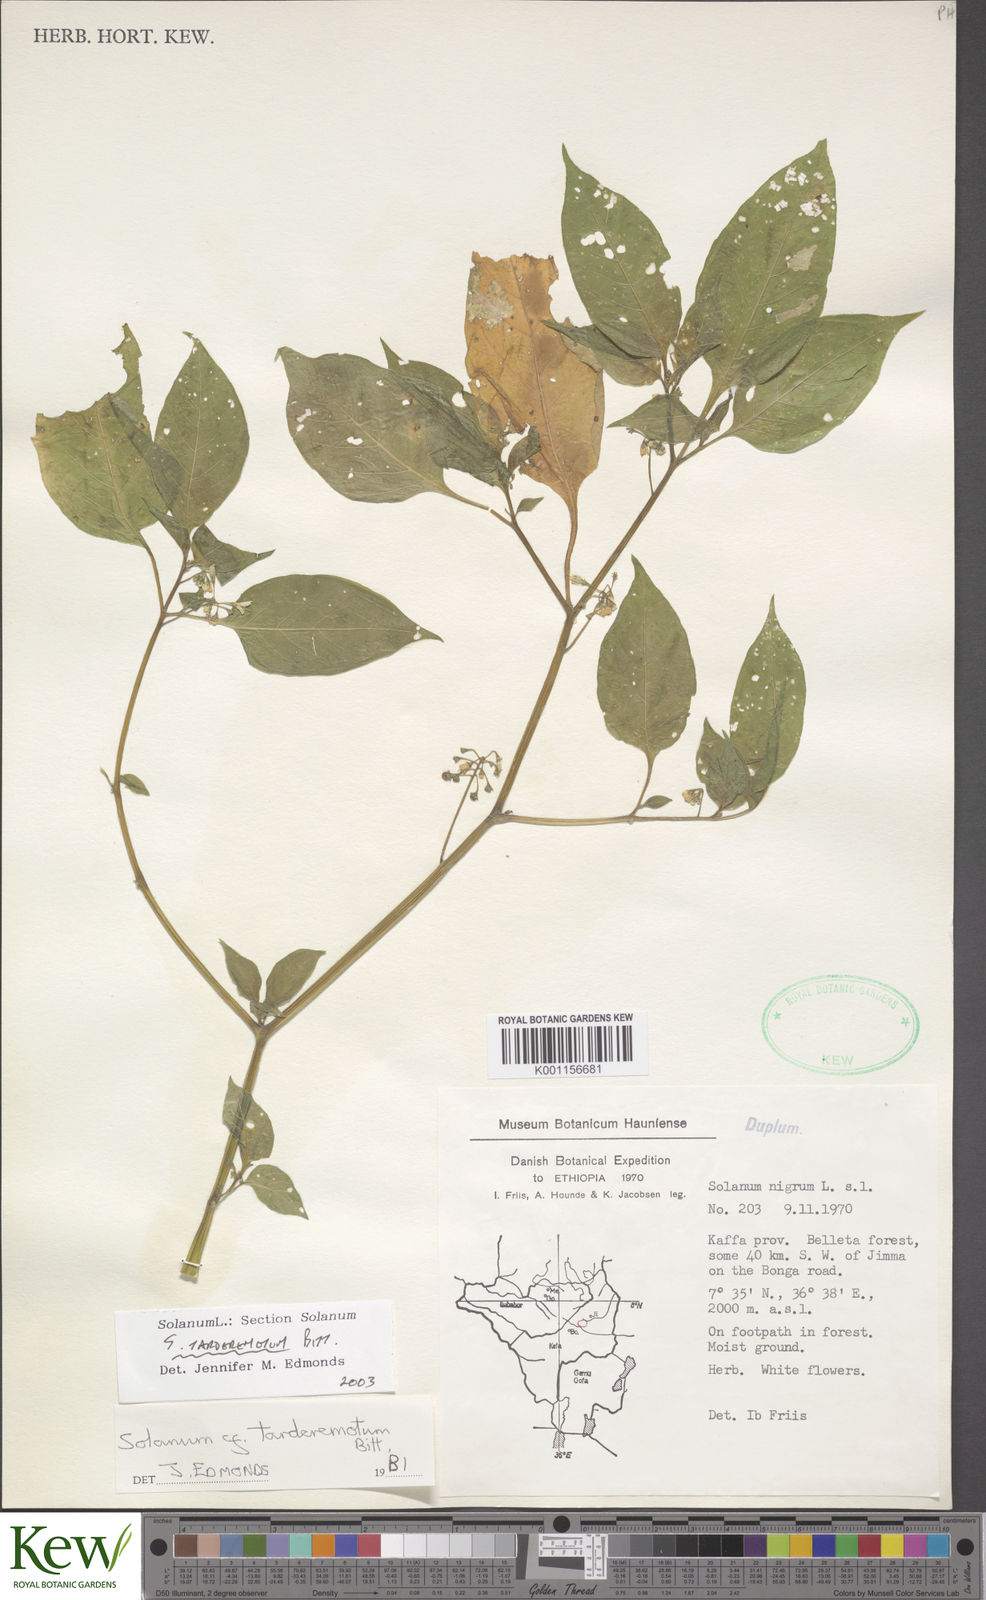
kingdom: Plantae
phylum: Tracheophyta
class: Magnoliopsida
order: Solanales
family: Solanaceae
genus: Solanum
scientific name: Solanum tarderemotum
